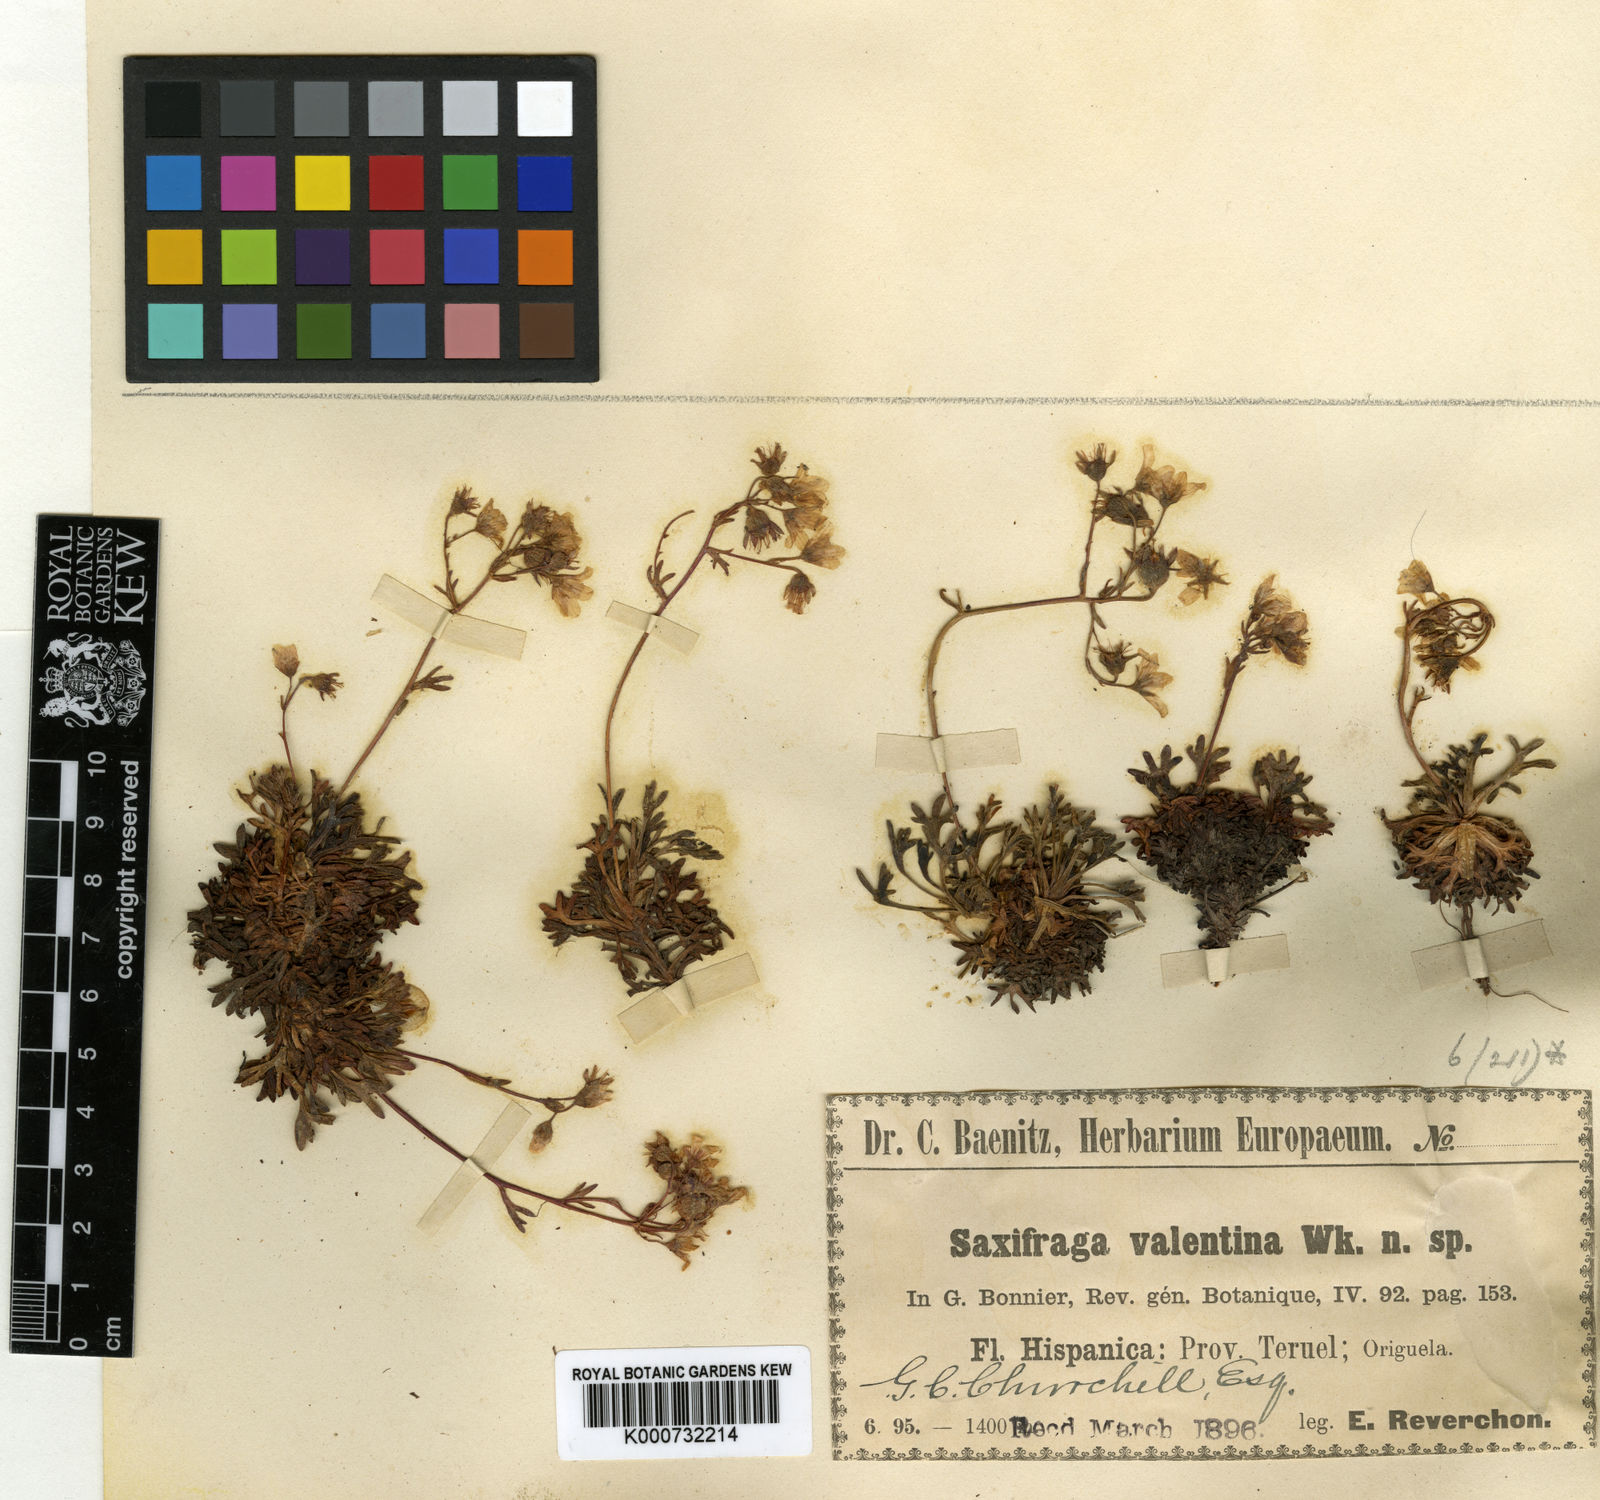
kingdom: Plantae
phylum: Tracheophyta
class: Magnoliopsida
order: Saxifragales
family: Saxifragaceae
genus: Saxifraga
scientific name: Saxifraga cuneata
